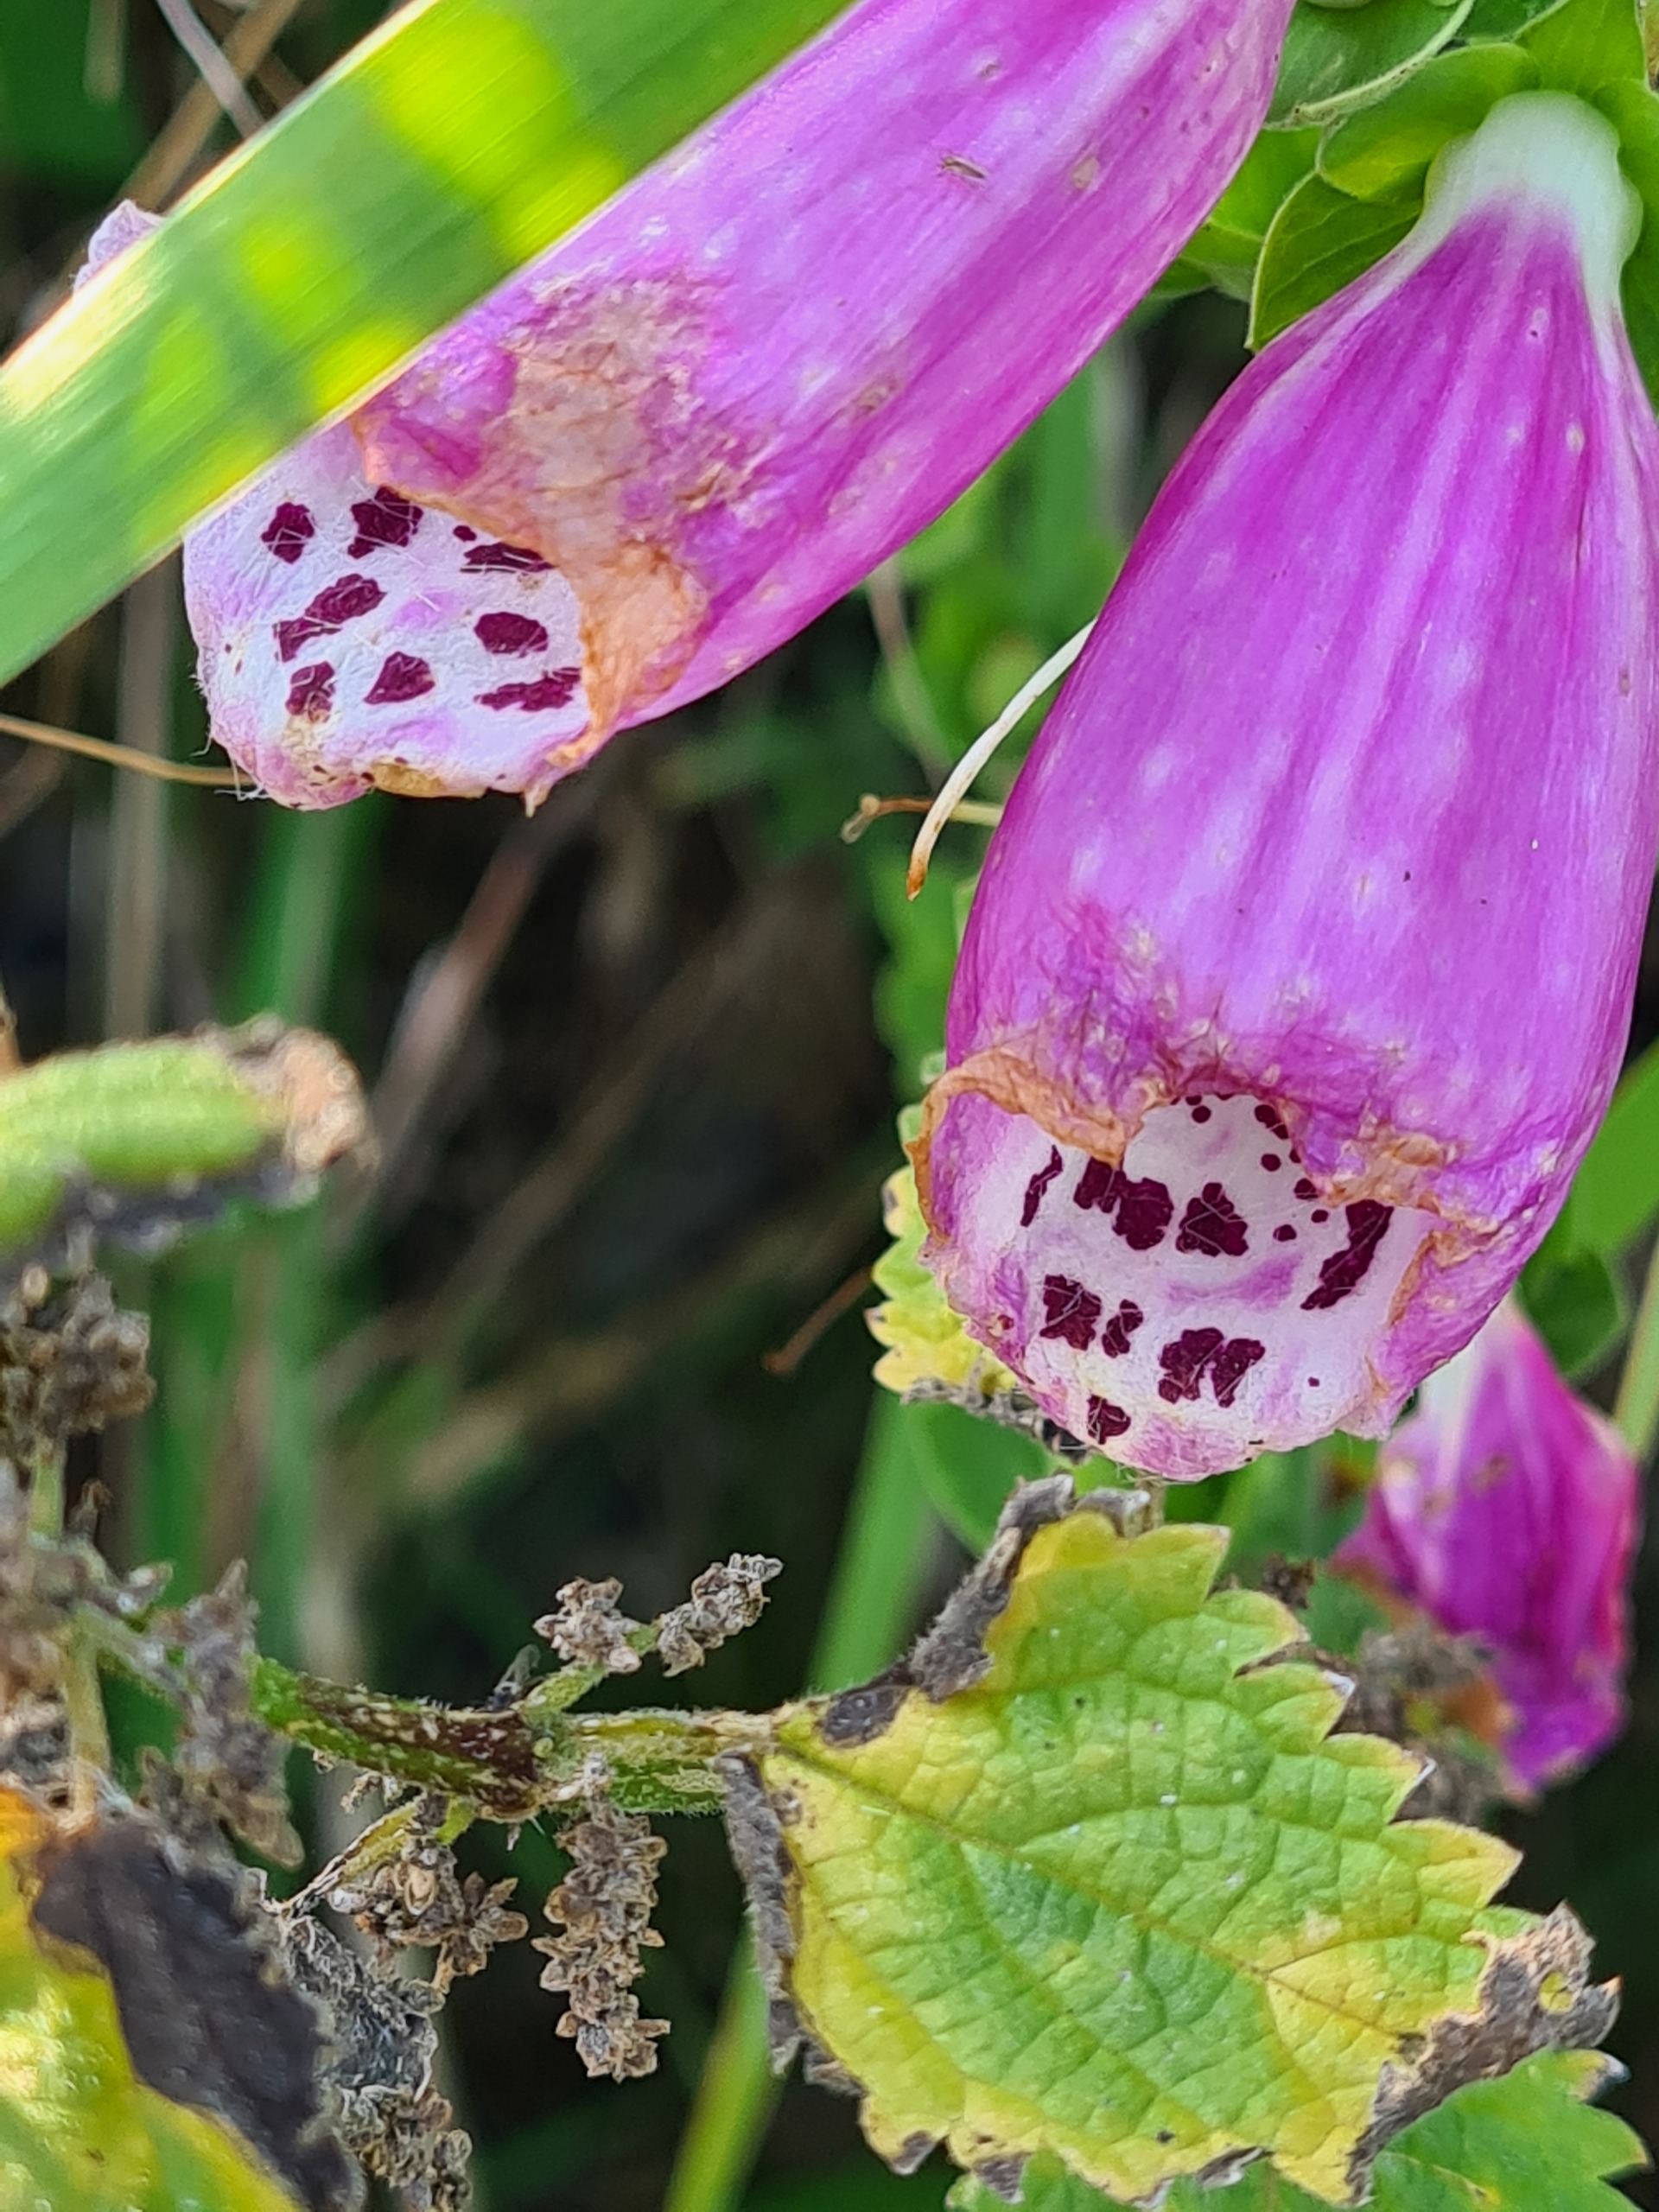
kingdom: Plantae
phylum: Tracheophyta
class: Magnoliopsida
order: Lamiales
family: Plantaginaceae
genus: Digitalis
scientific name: Digitalis purpurea
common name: Almindelig fingerbøl
